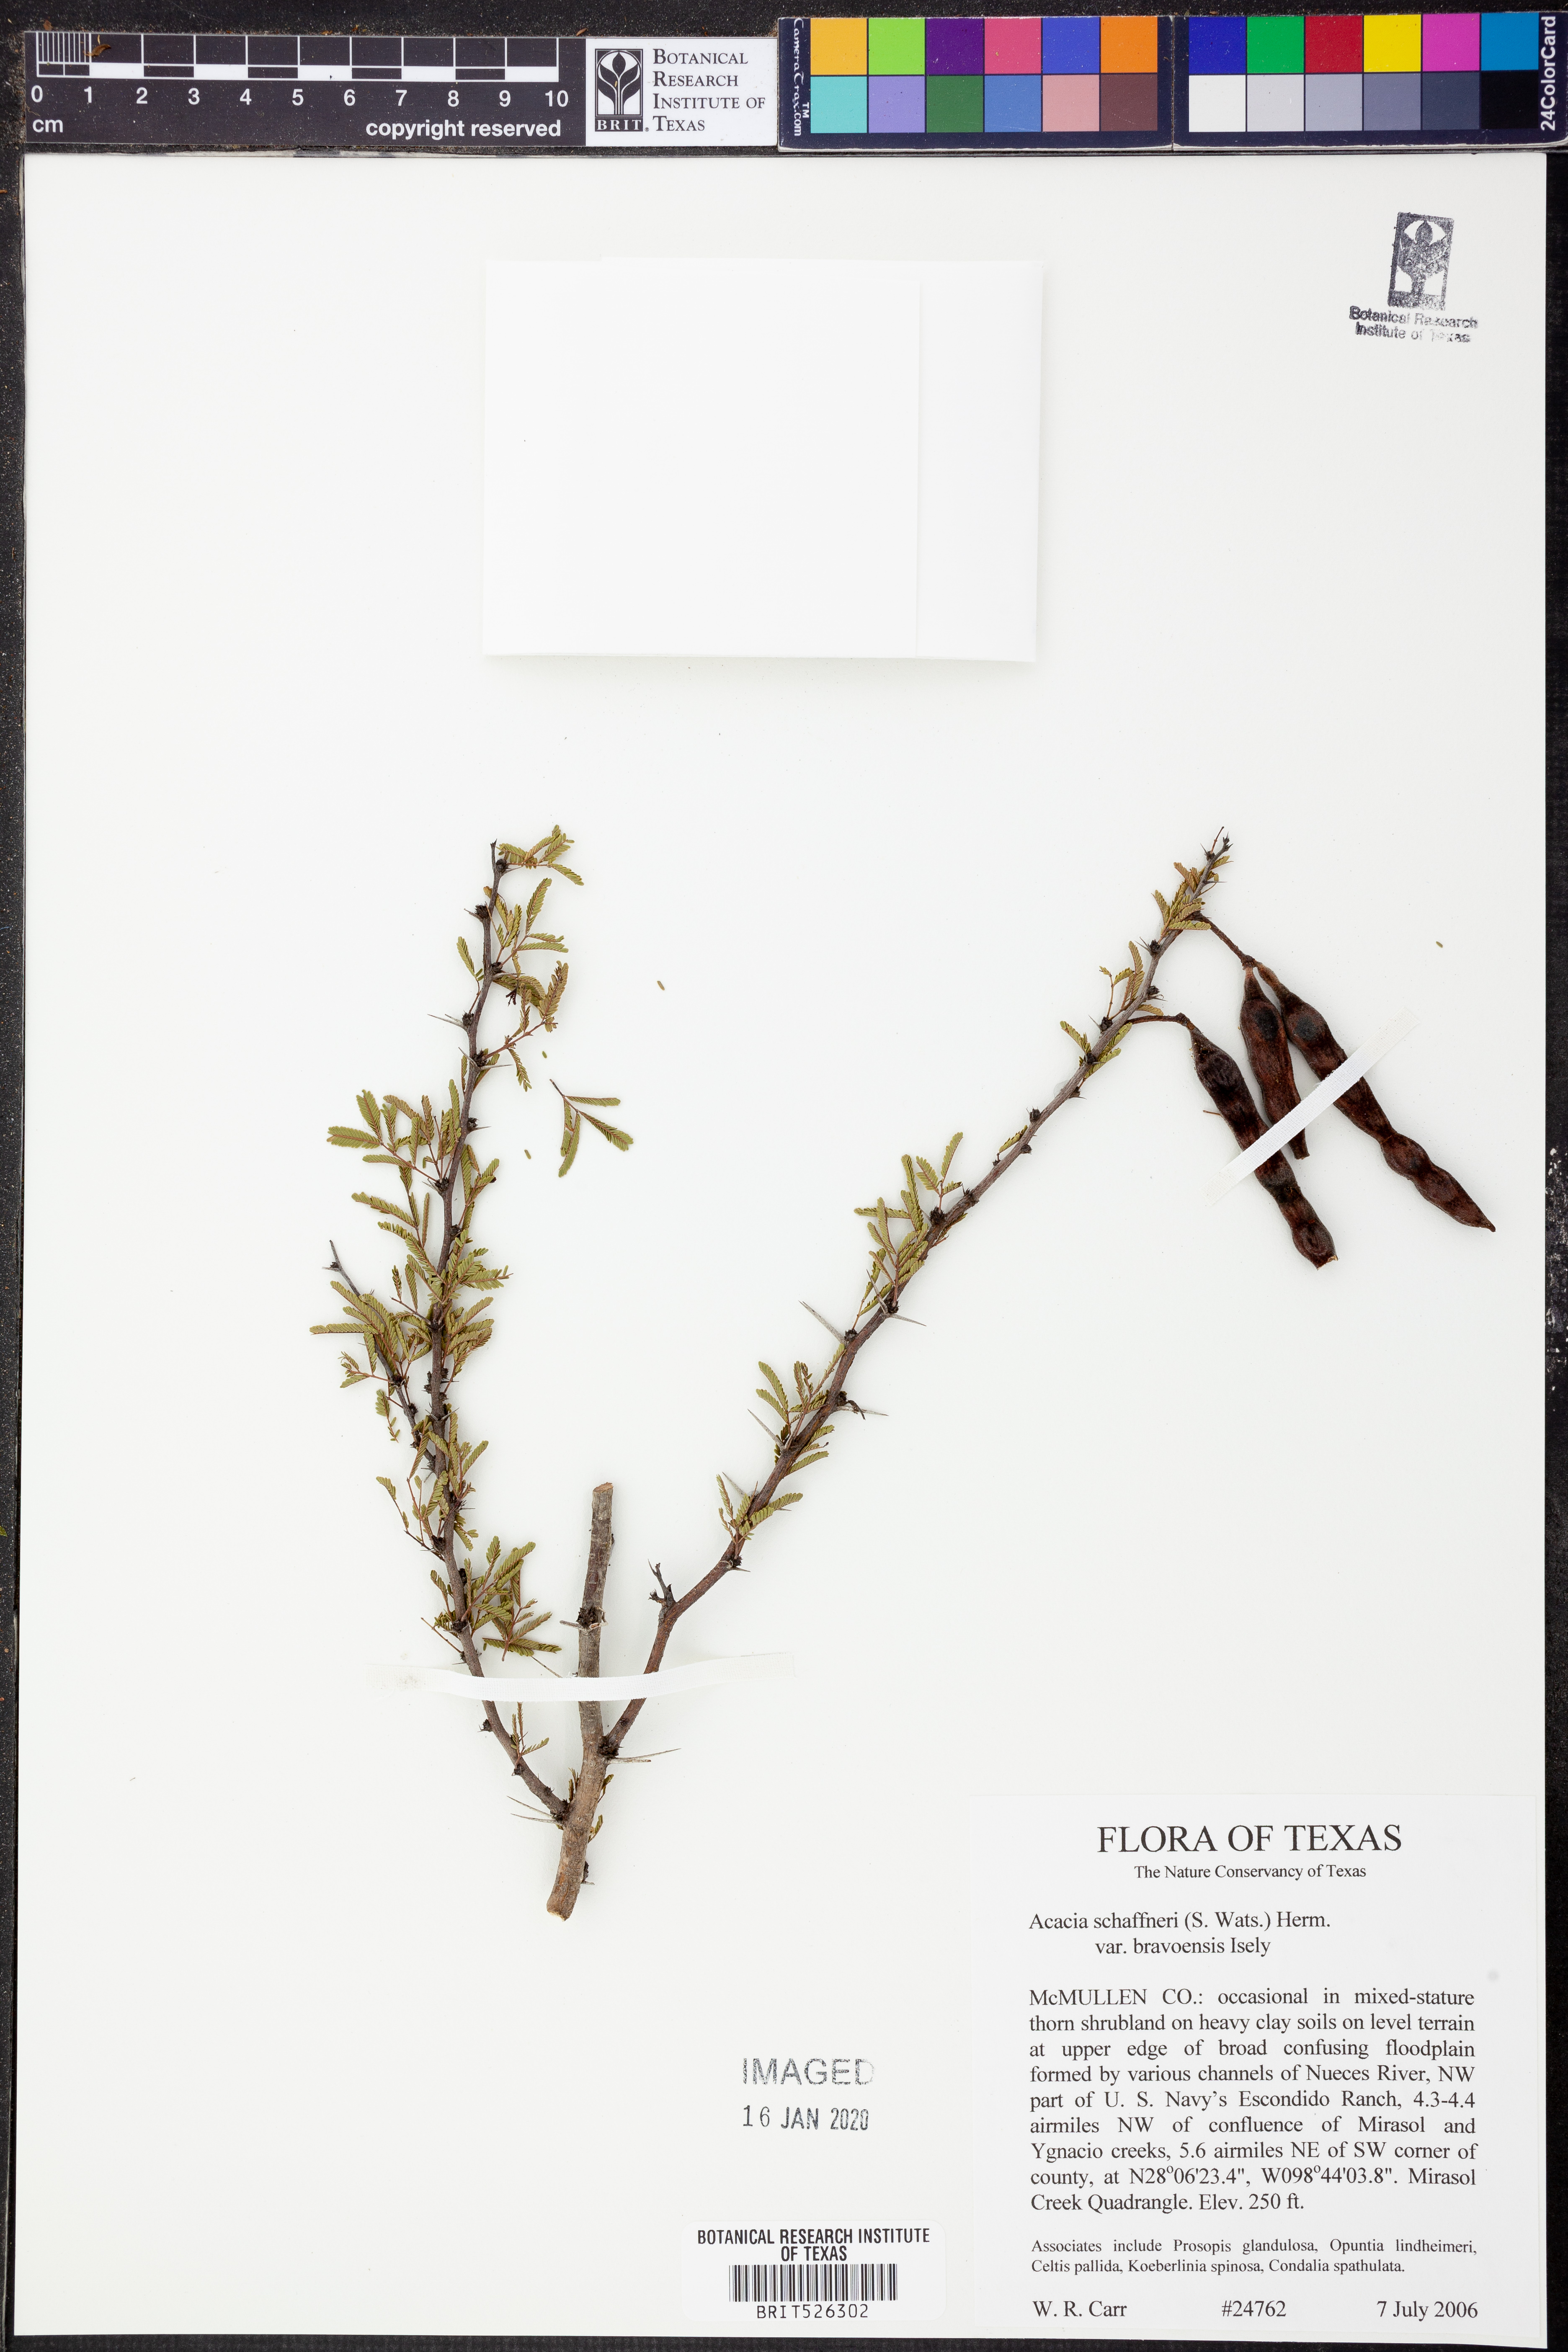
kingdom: Plantae
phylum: Tracheophyta
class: Magnoliopsida
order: Fabales
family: Fabaceae
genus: Vachellia
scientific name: Vachellia bravoensis
